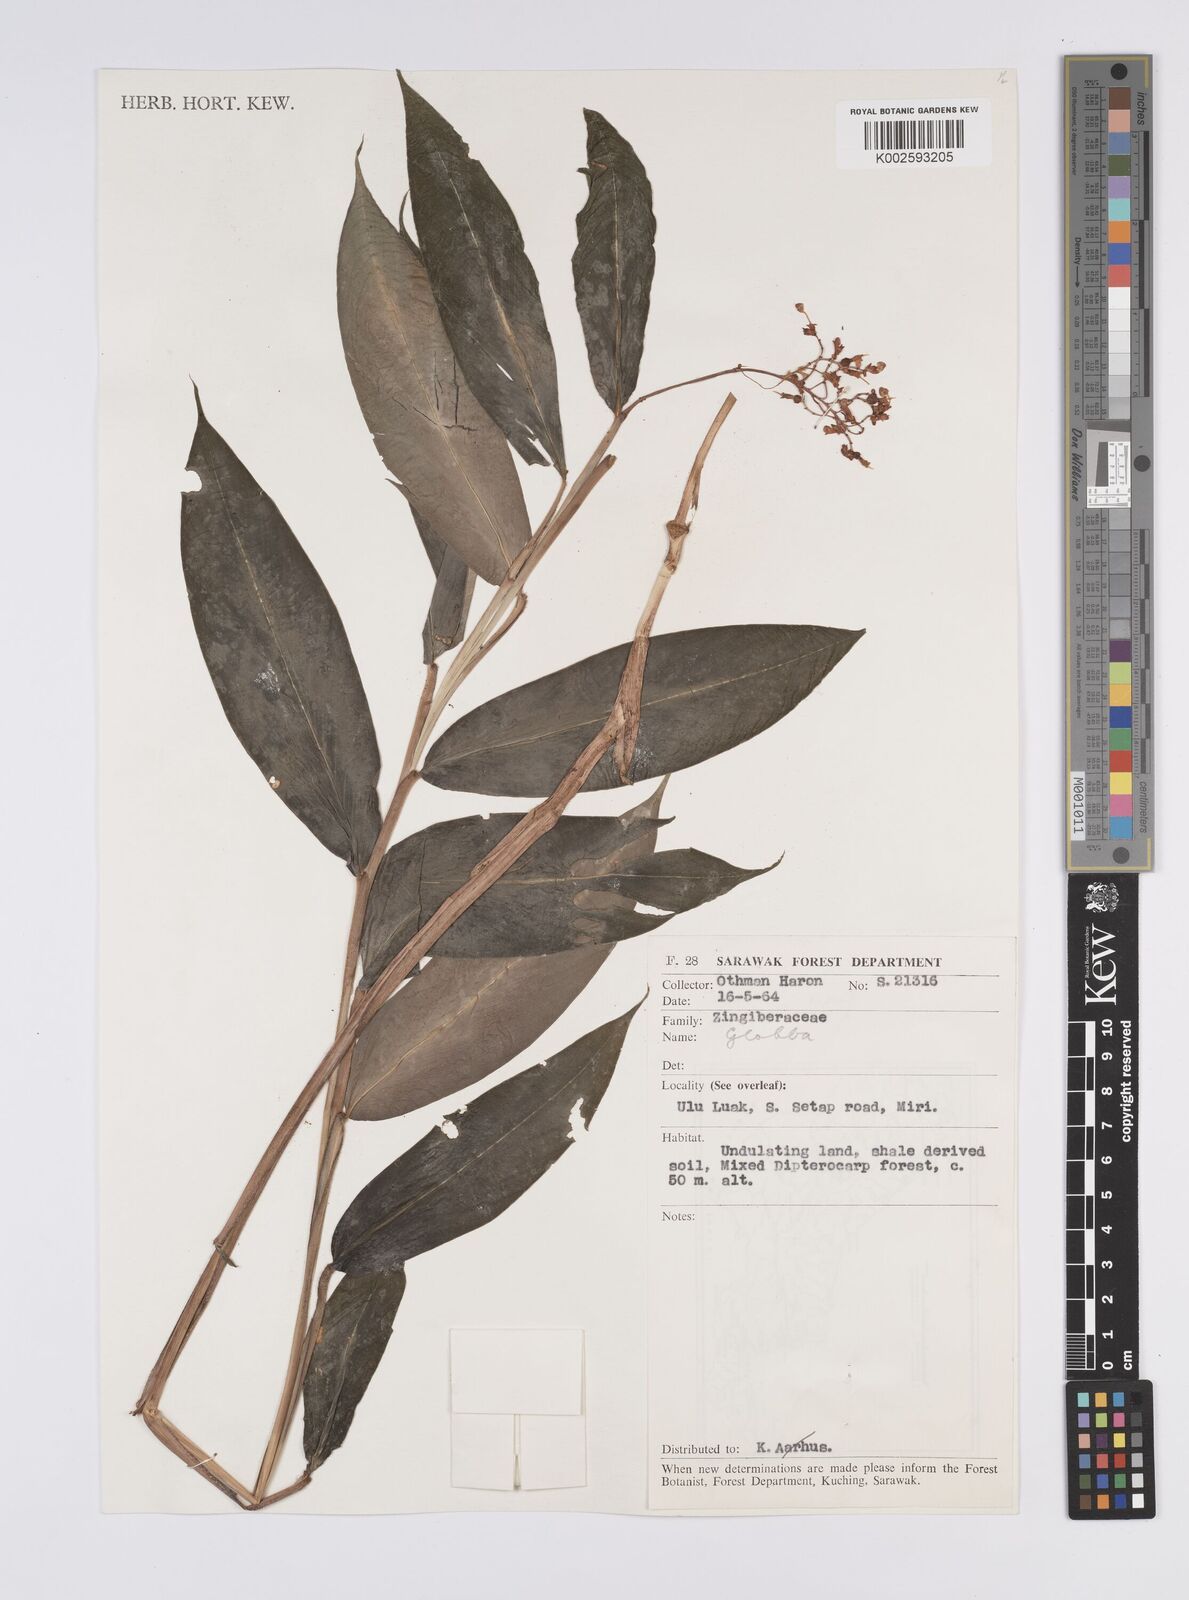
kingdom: Plantae
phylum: Tracheophyta
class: Liliopsida
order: Zingiberales
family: Zingiberaceae
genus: Globba
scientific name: Globba
